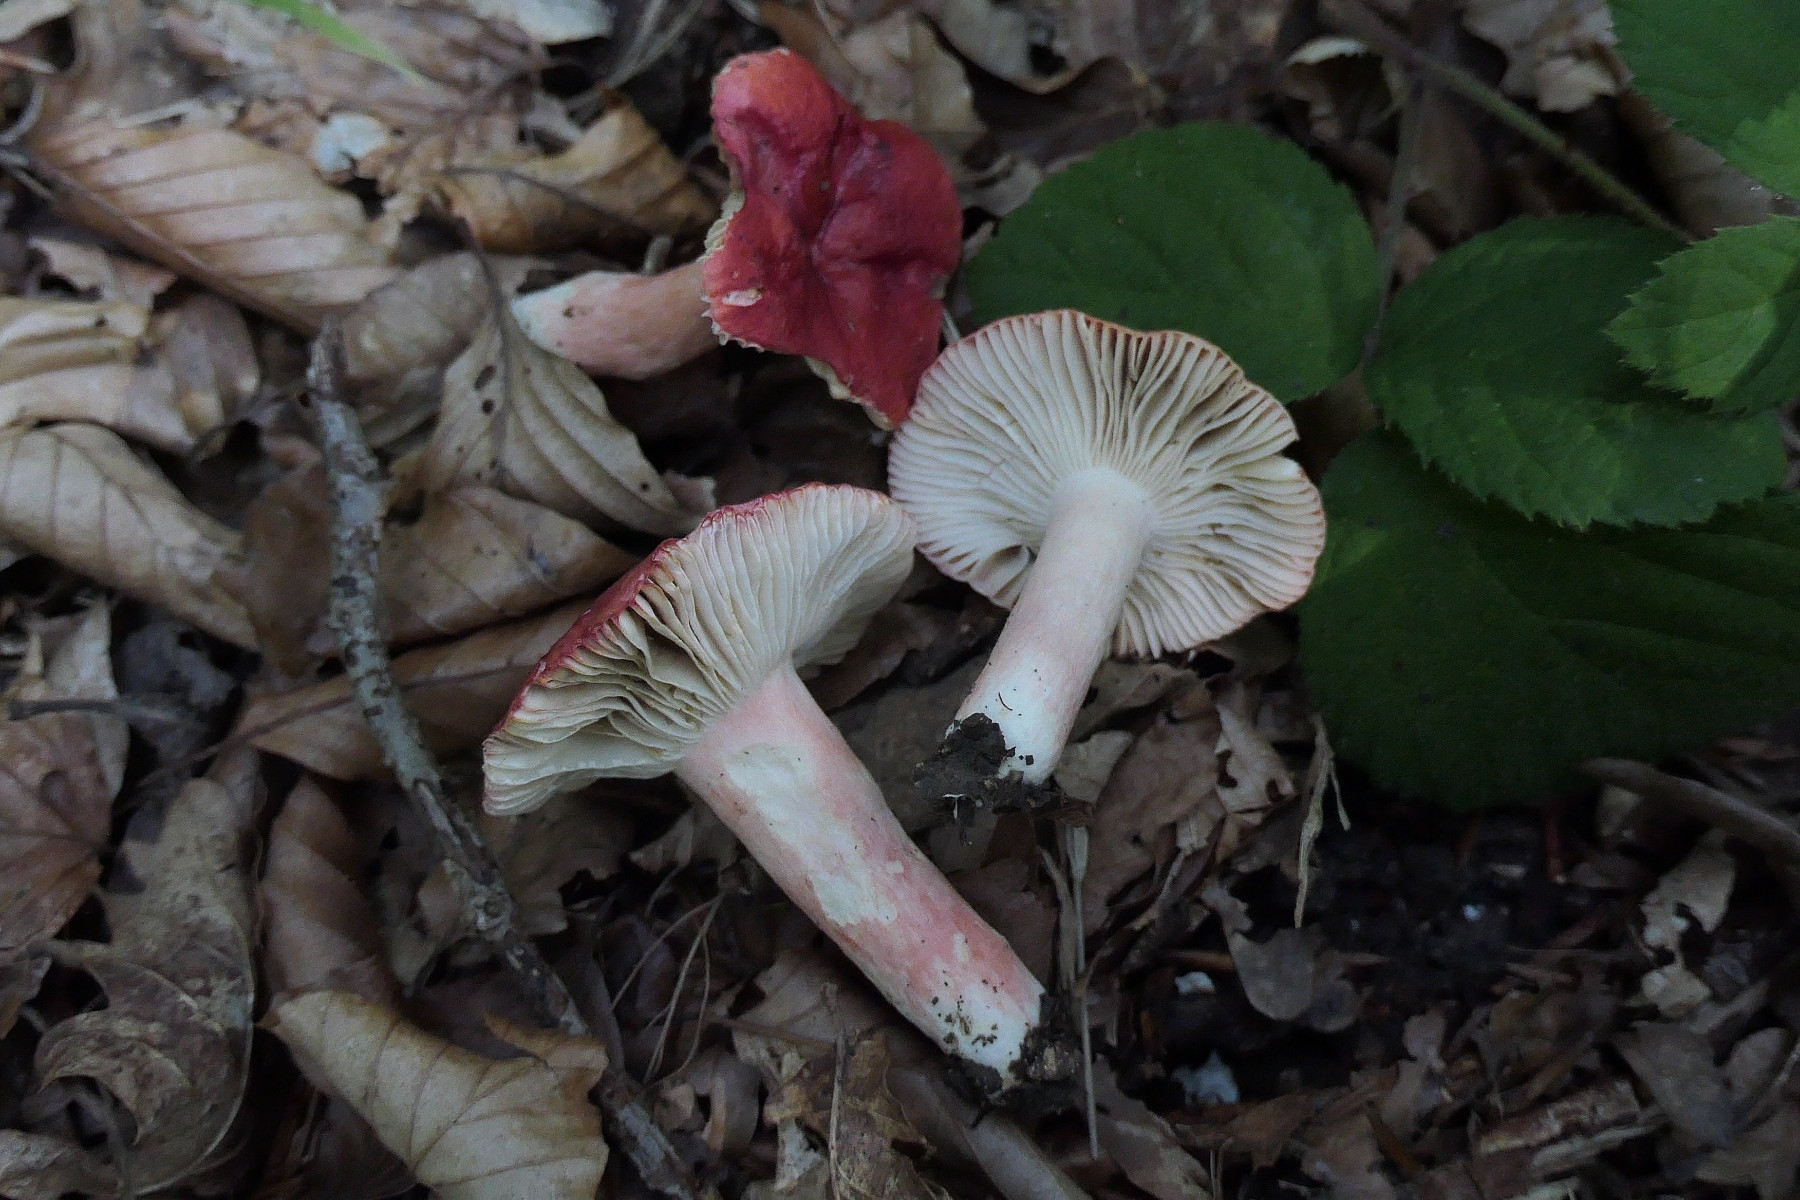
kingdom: Fungi
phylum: Basidiomycota
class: Agaricomycetes
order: Russulales
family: Russulaceae
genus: Russula
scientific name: Russula luteotacta
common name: gulplettet gift-skørhat
